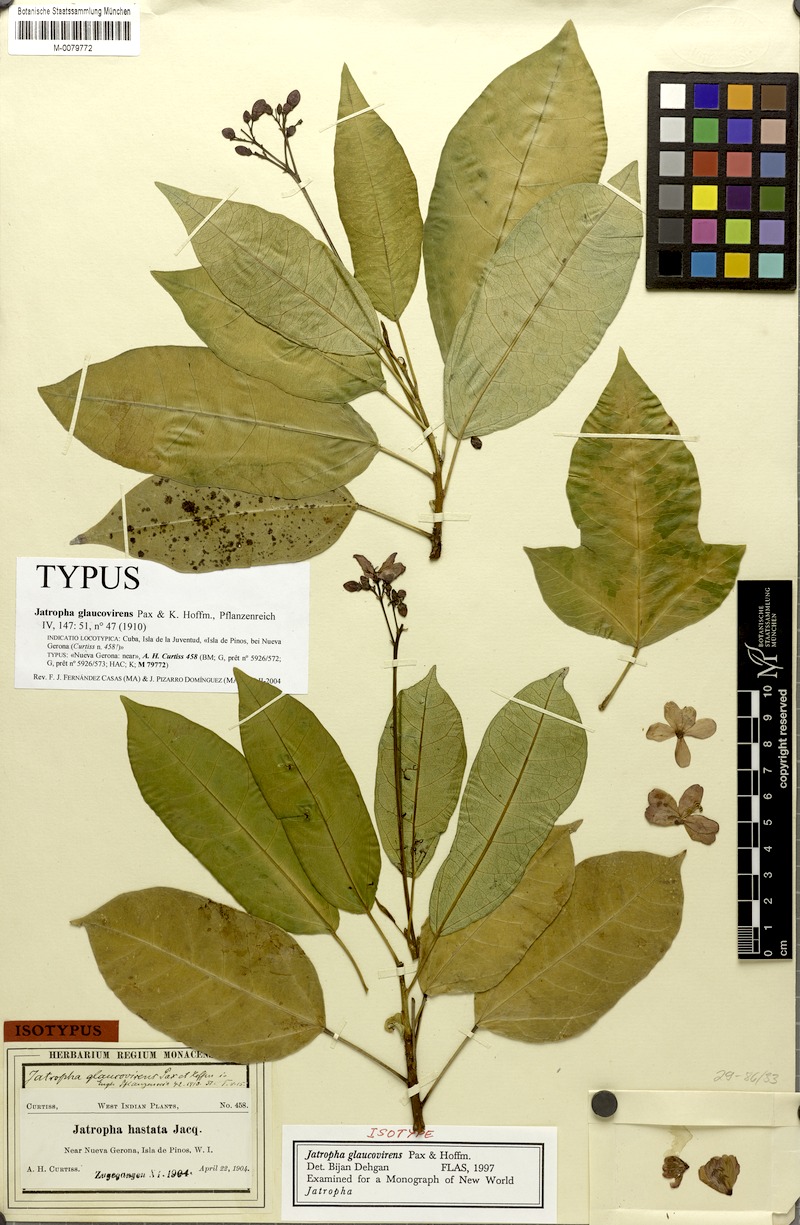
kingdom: Plantae
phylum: Tracheophyta
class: Magnoliopsida
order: Malpighiales
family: Euphorbiaceae
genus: Jatropha
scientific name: Jatropha integerrima
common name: Peregrina
